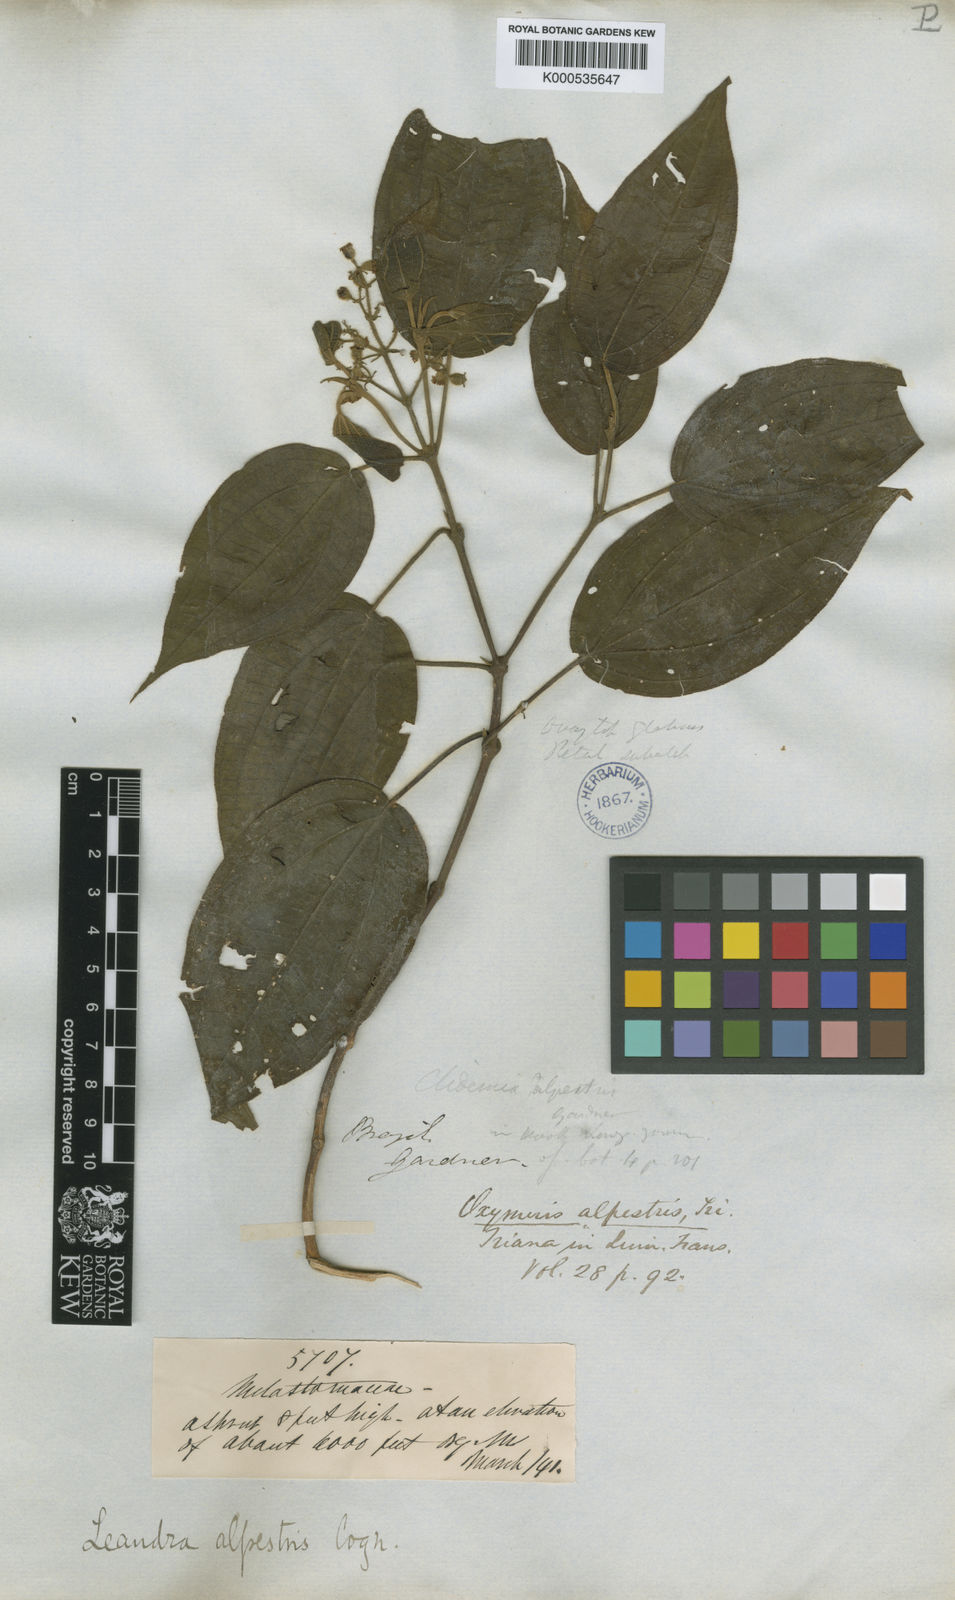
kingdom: Plantae
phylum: Tracheophyta
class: Magnoliopsida
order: Myrtales
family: Melastomataceae
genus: Miconia
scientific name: Miconia lealpestris
